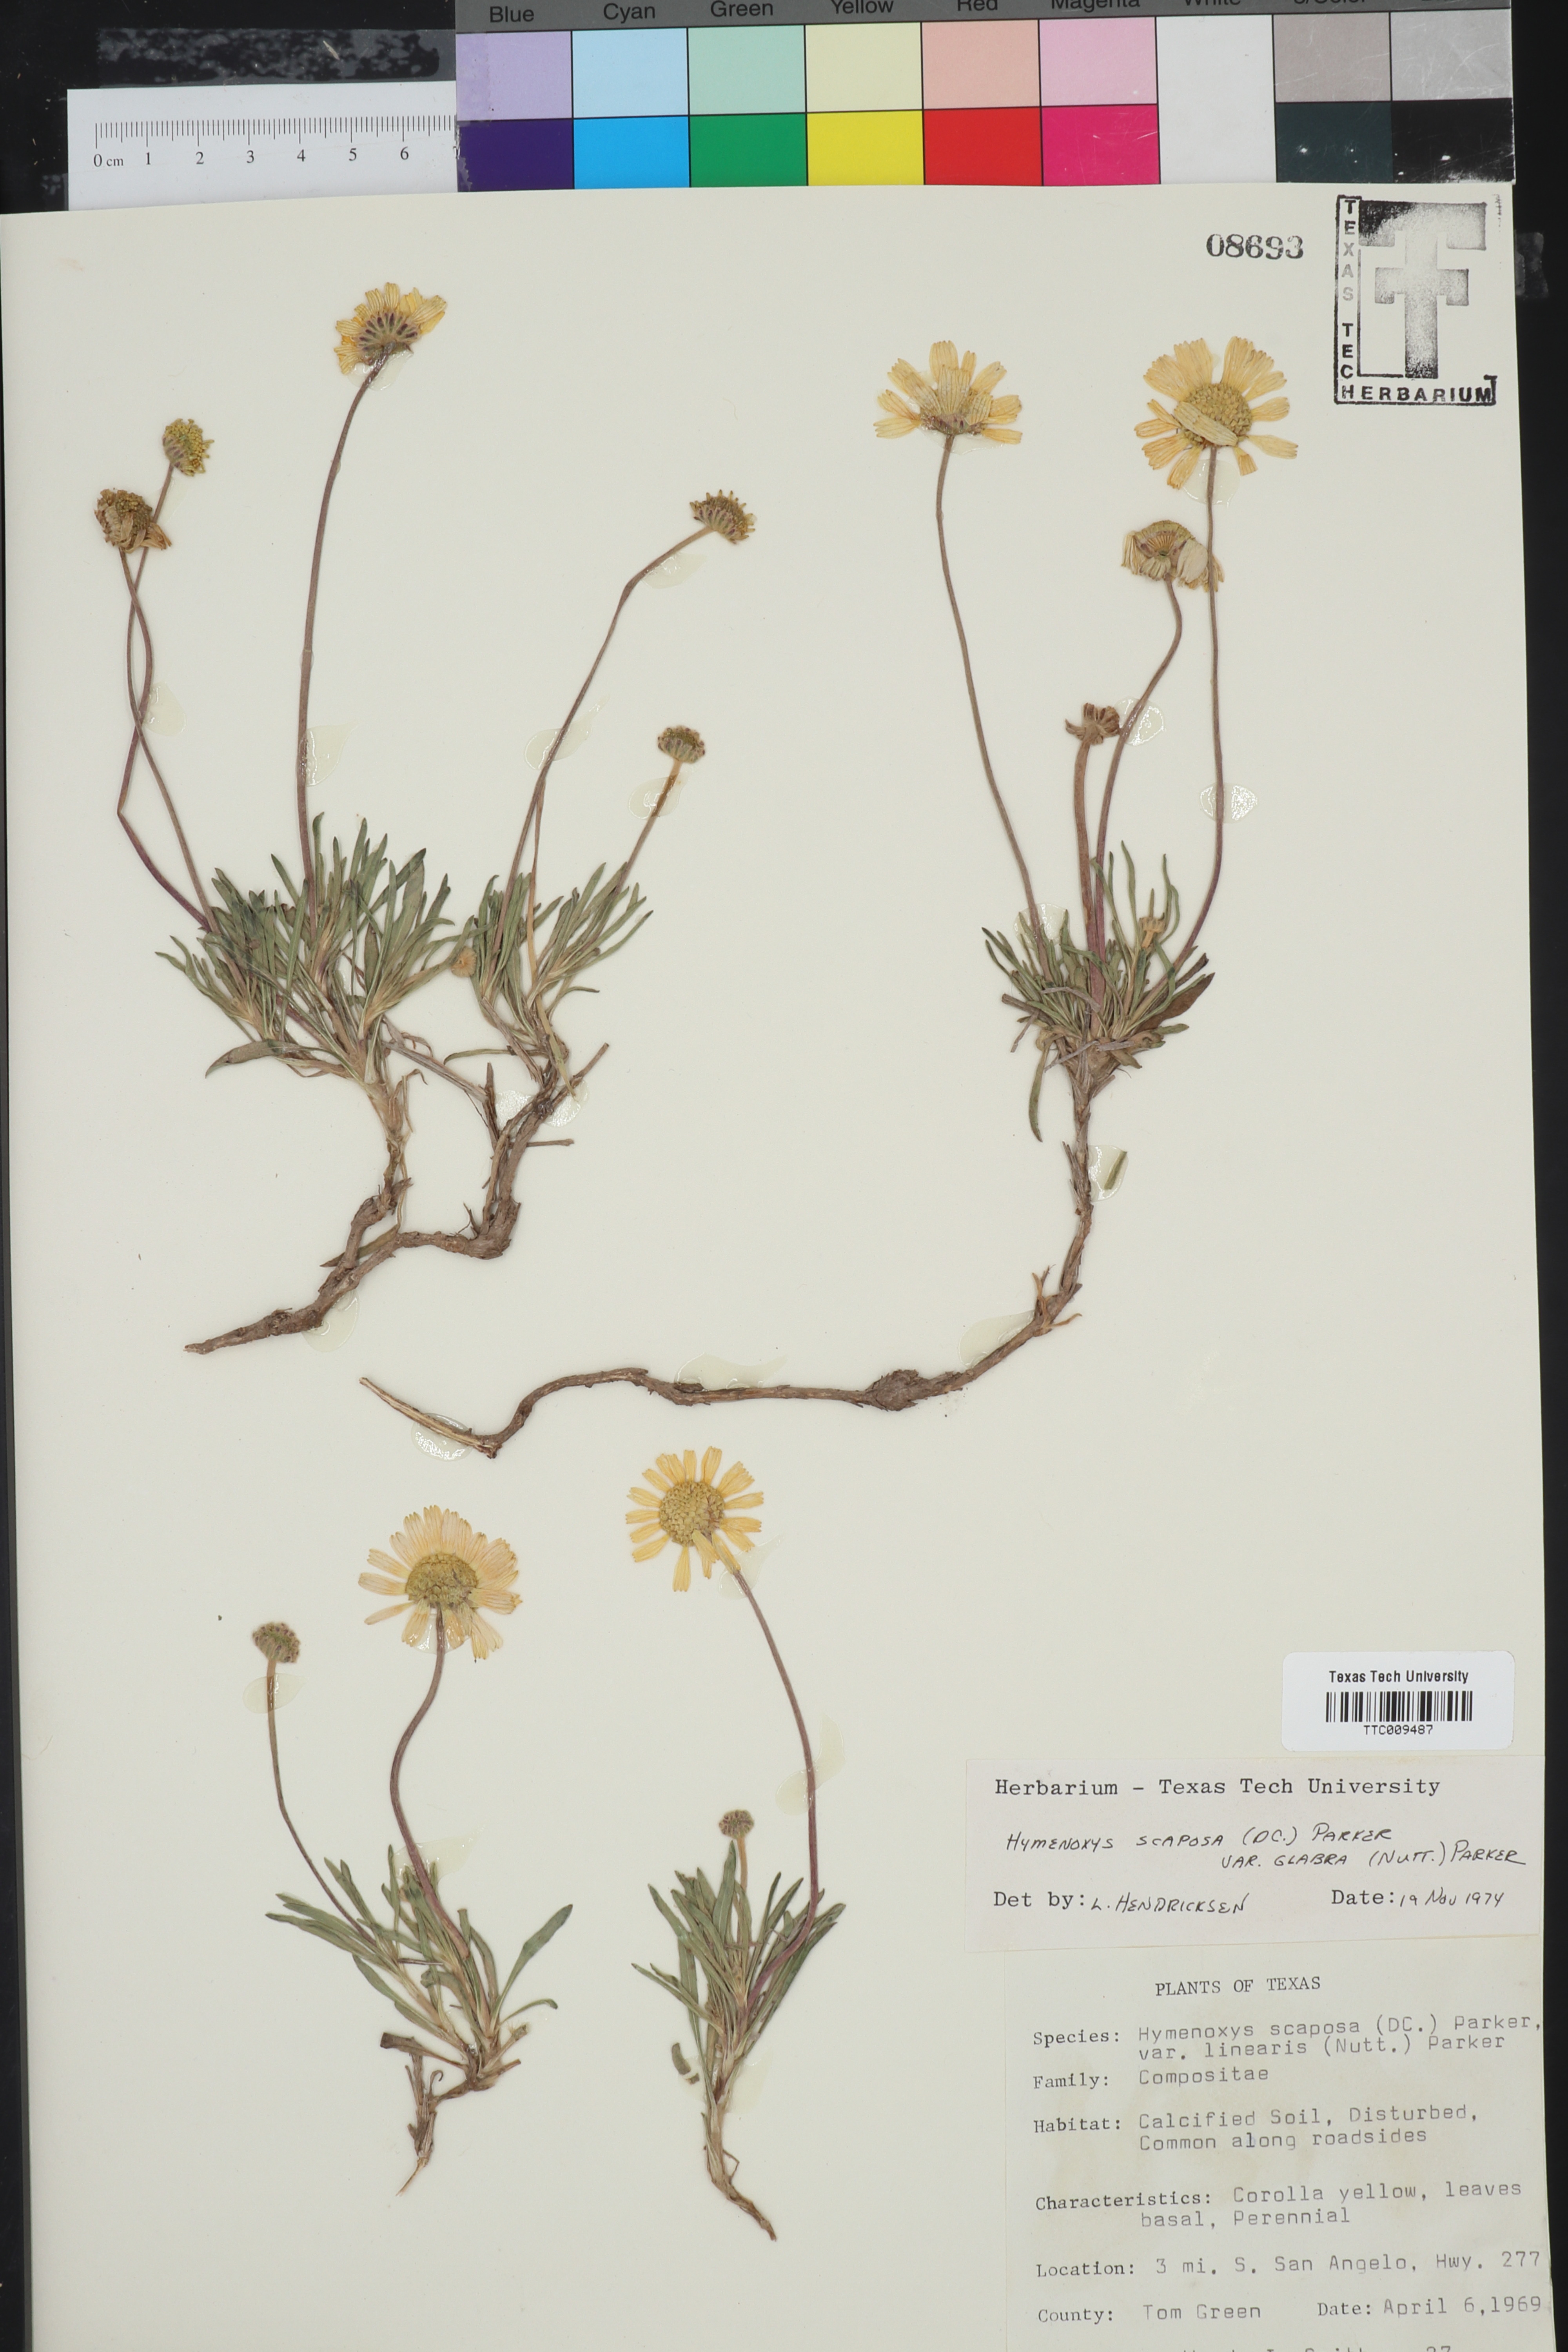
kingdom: Plantae
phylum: Tracheophyta
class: Magnoliopsida
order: Asterales
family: Asteraceae
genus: Tetraneuris
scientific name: Tetraneuris scaposa
